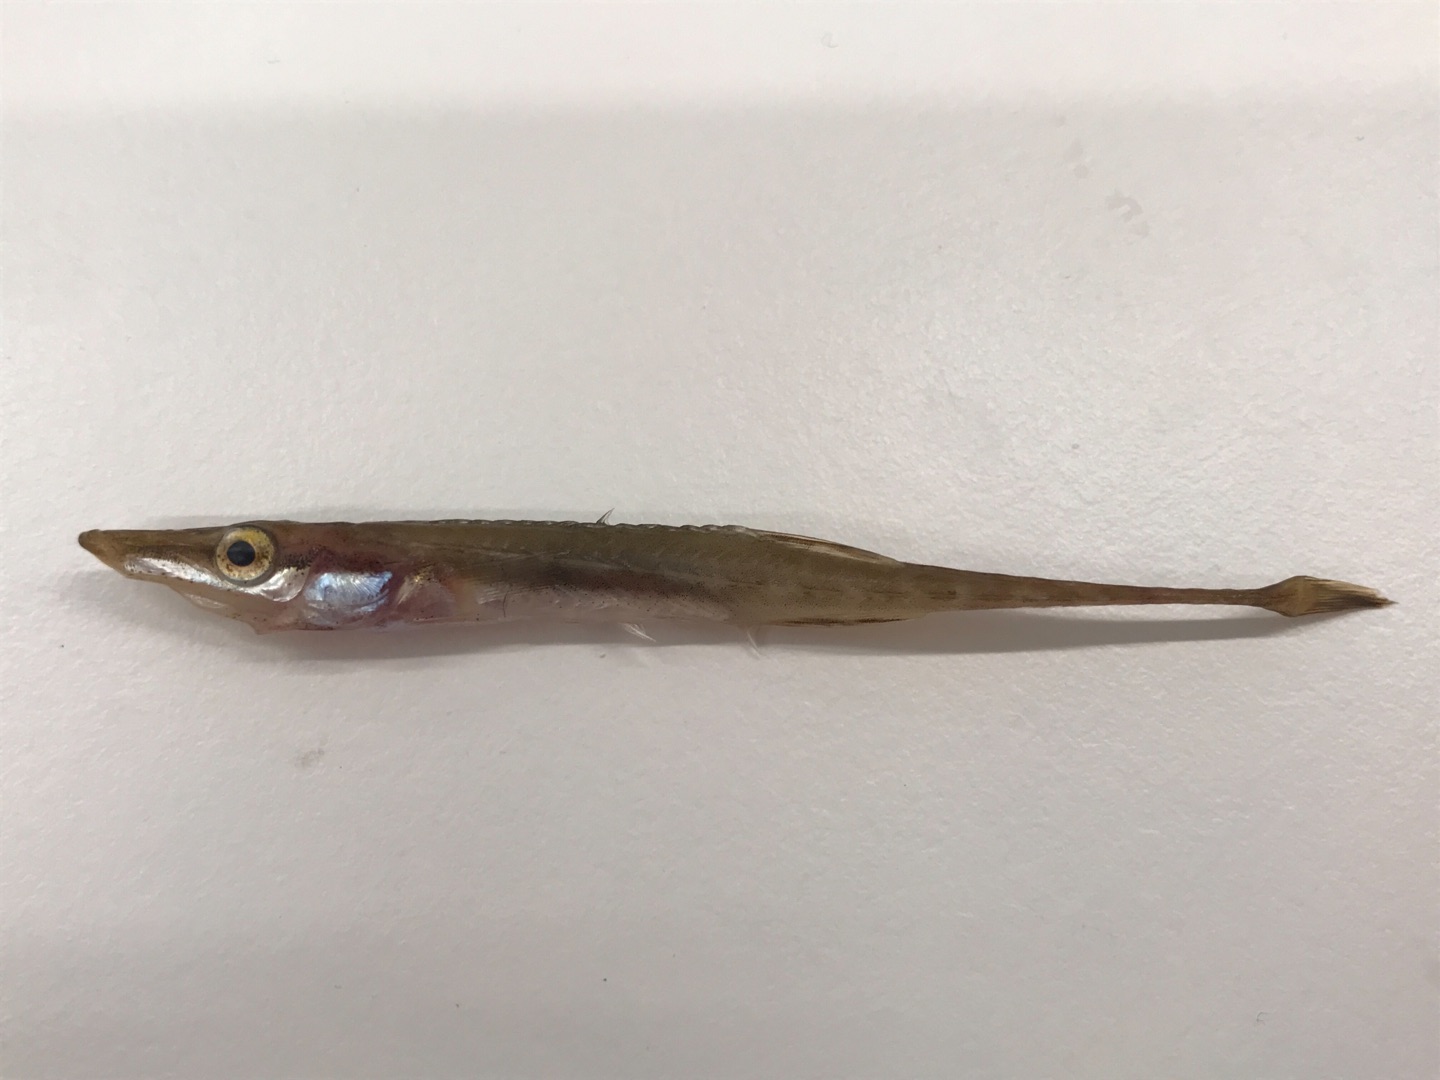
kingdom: Animalia
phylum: Chordata
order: Gasterosteiformes
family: Gasterosteidae
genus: Spinachia
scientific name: Spinachia spinachia
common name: Tangsnarre
